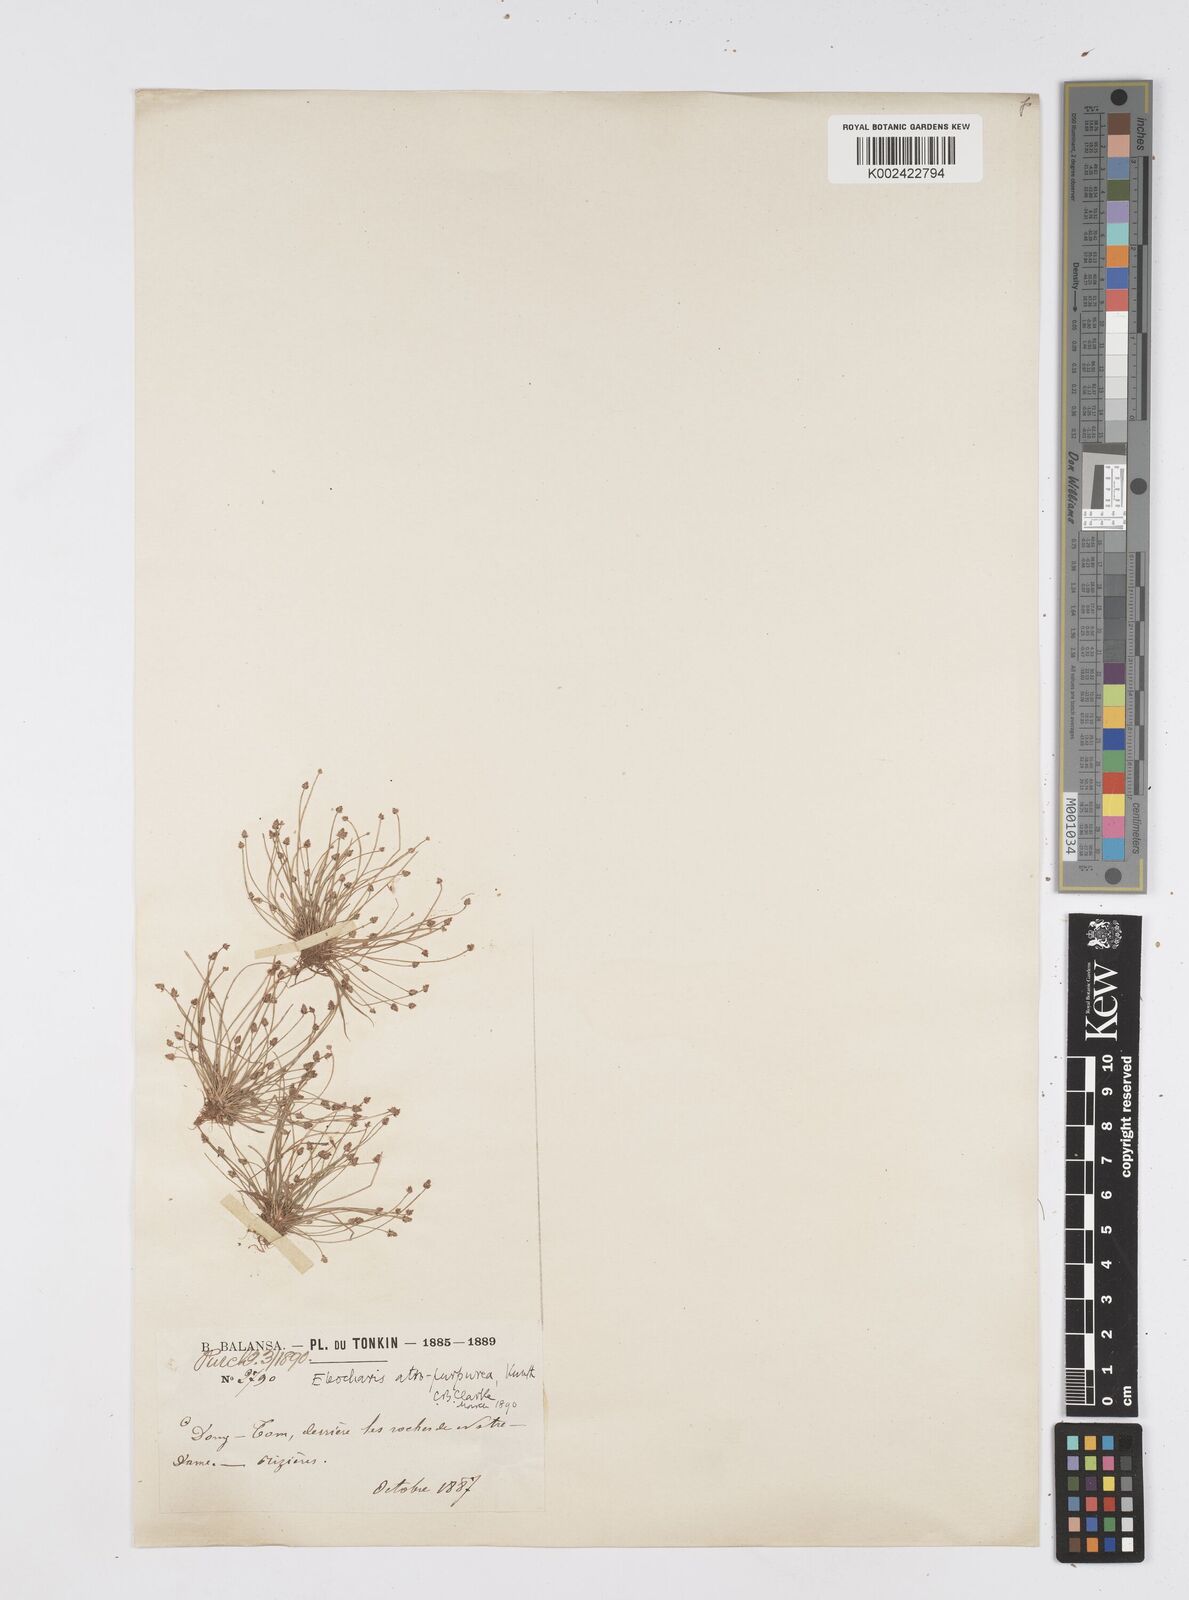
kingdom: Plantae
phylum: Tracheophyta
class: Liliopsida
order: Poales
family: Cyperaceae
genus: Eleocharis
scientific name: Eleocharis atropurpurea
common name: Purple spikerush
